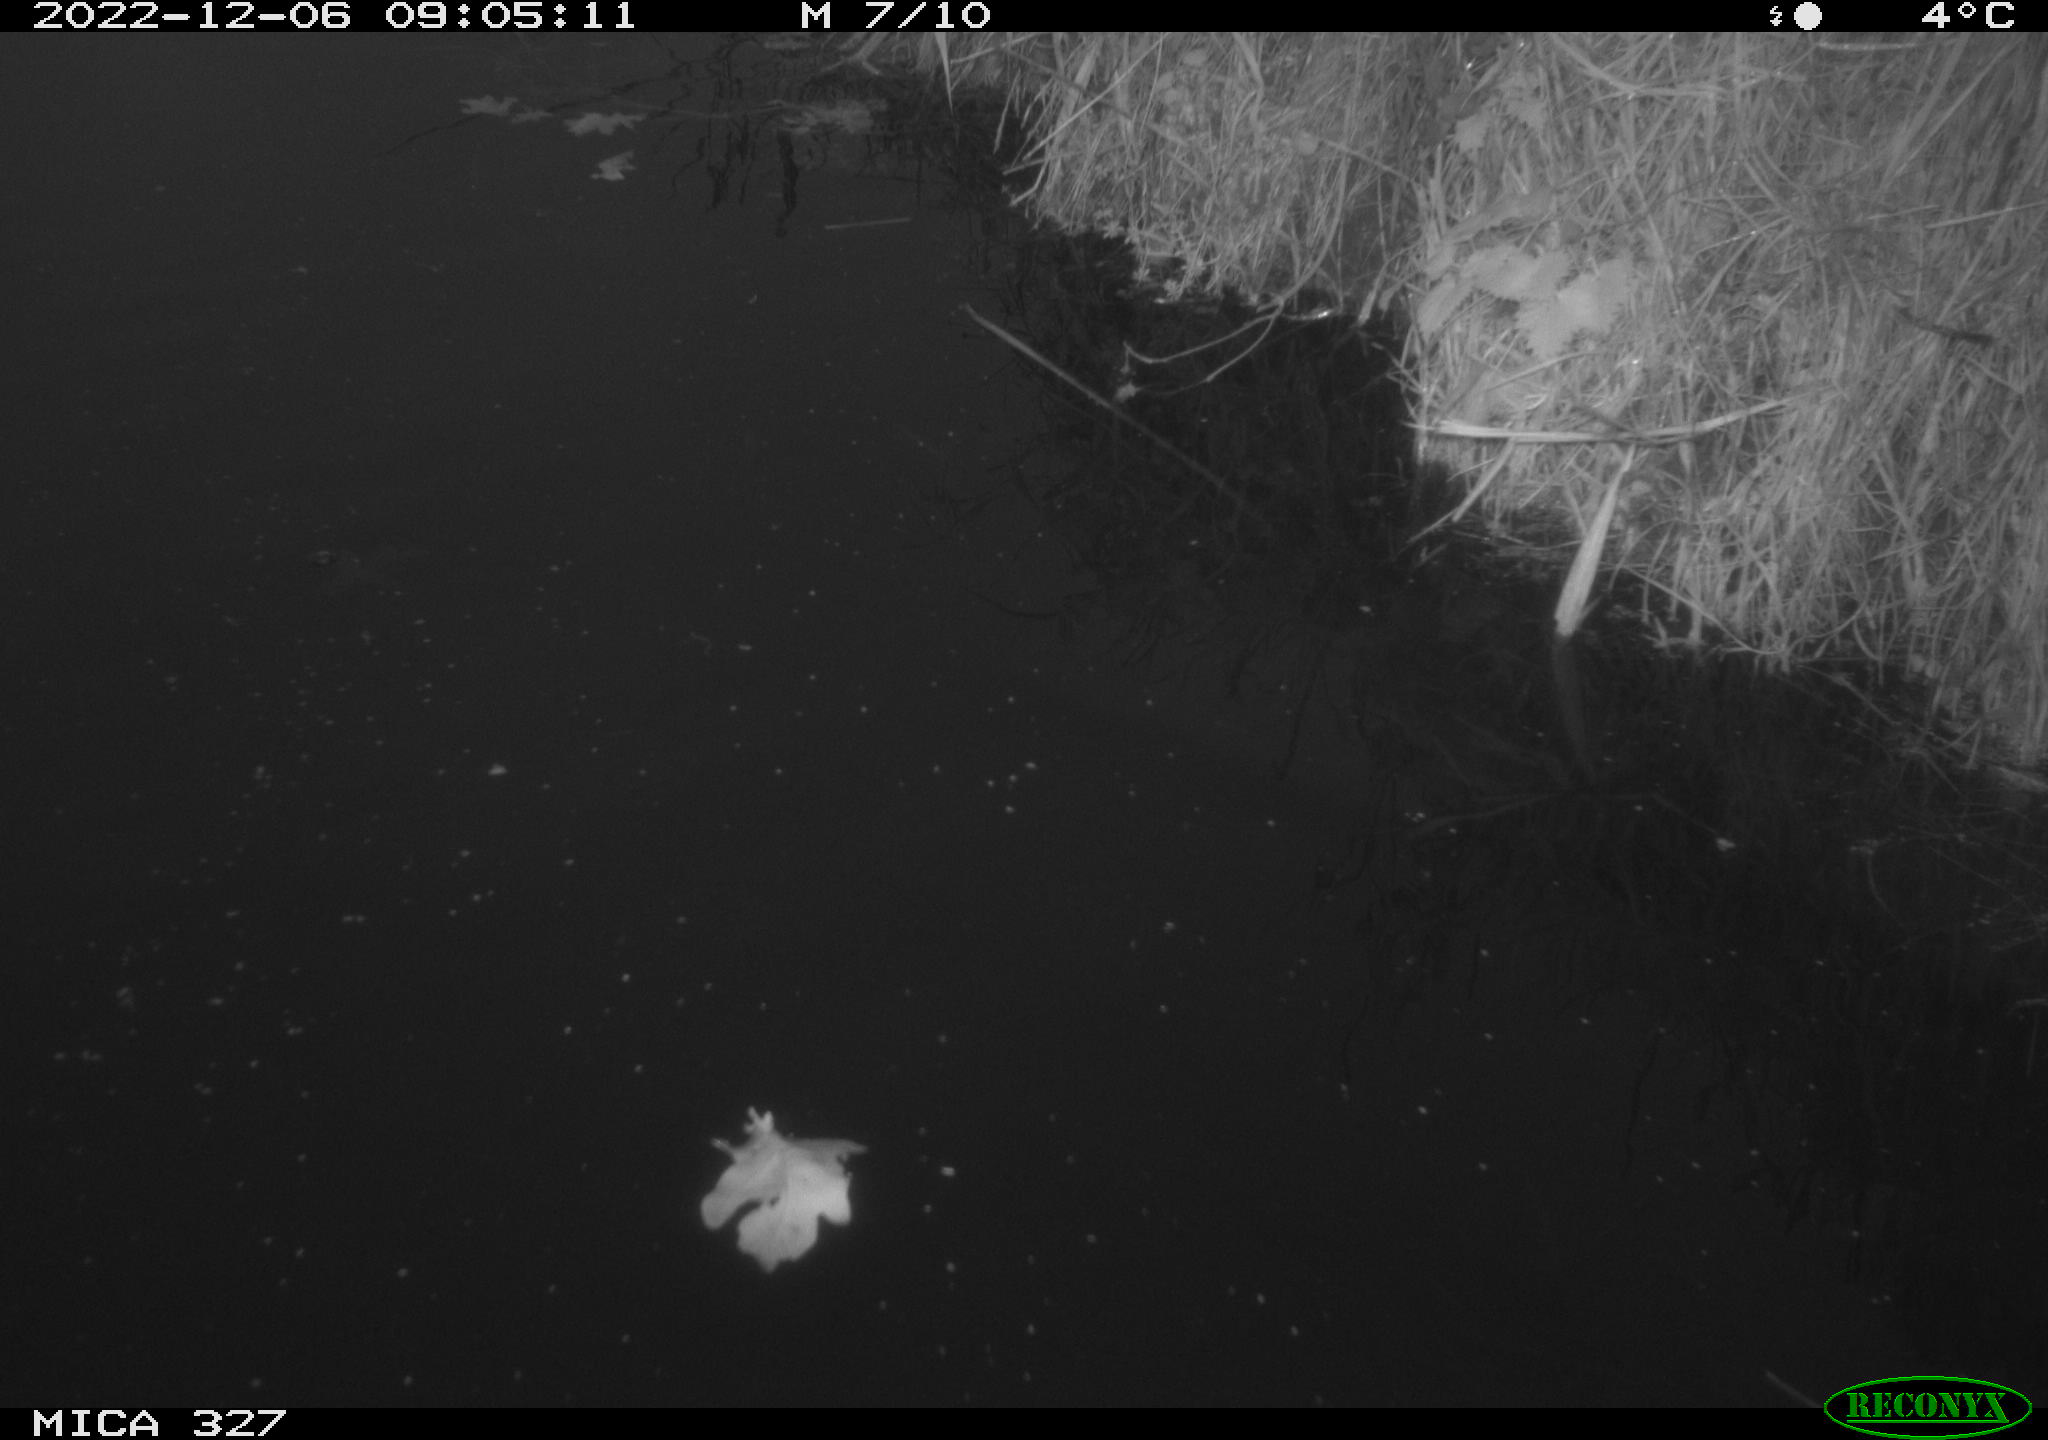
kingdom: Animalia
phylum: Chordata
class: Aves
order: Gruiformes
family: Rallidae
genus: Gallinula
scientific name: Gallinula chloropus
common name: Common moorhen
